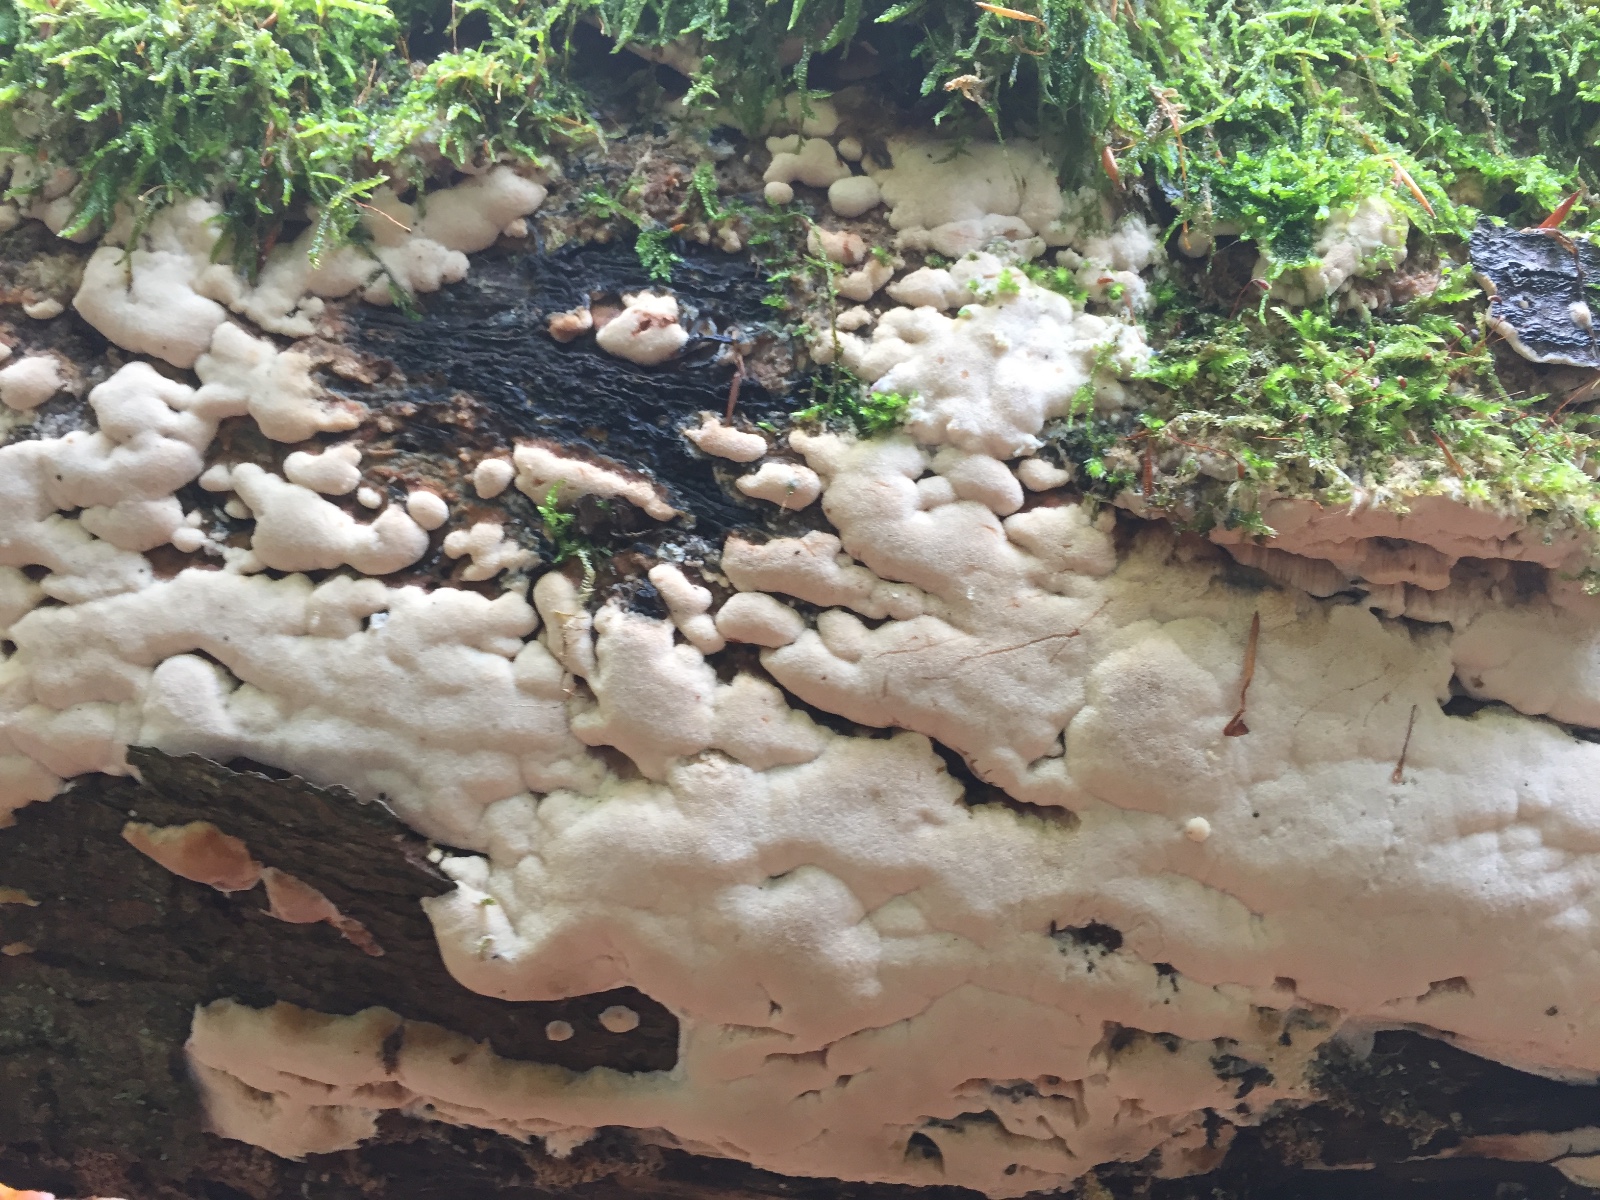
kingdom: Fungi
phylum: Basidiomycota
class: Agaricomycetes
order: Polyporales
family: Meruliaceae
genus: Mycoacia
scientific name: Mycoacia gilvescens
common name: rosa pastelporesvamp
